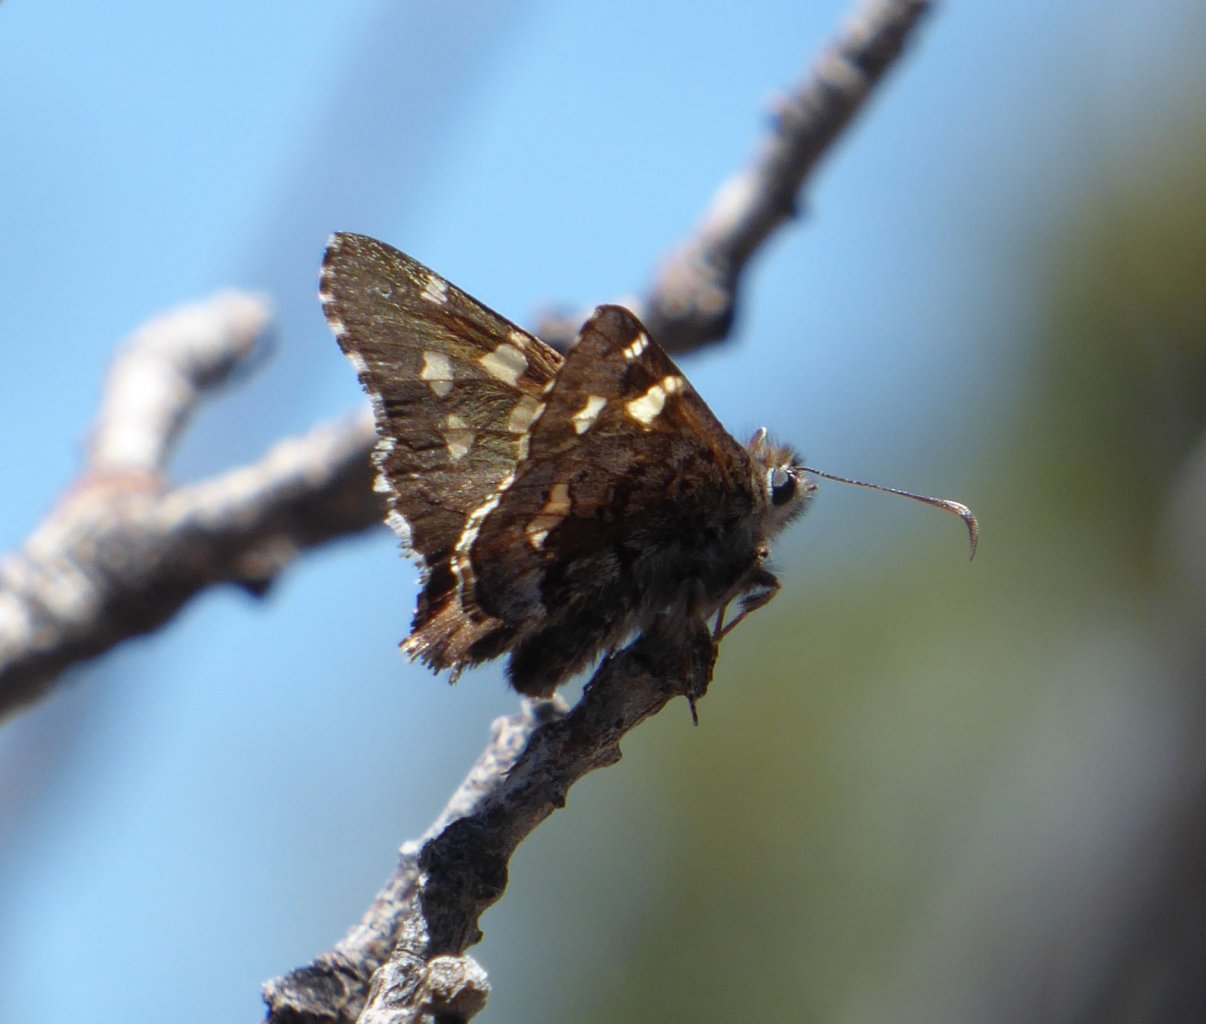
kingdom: Animalia
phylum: Arthropoda
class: Insecta
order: Lepidoptera
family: Hesperiidae
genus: Zestusa
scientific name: Zestusa dorus
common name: Short-tailed Skipper
